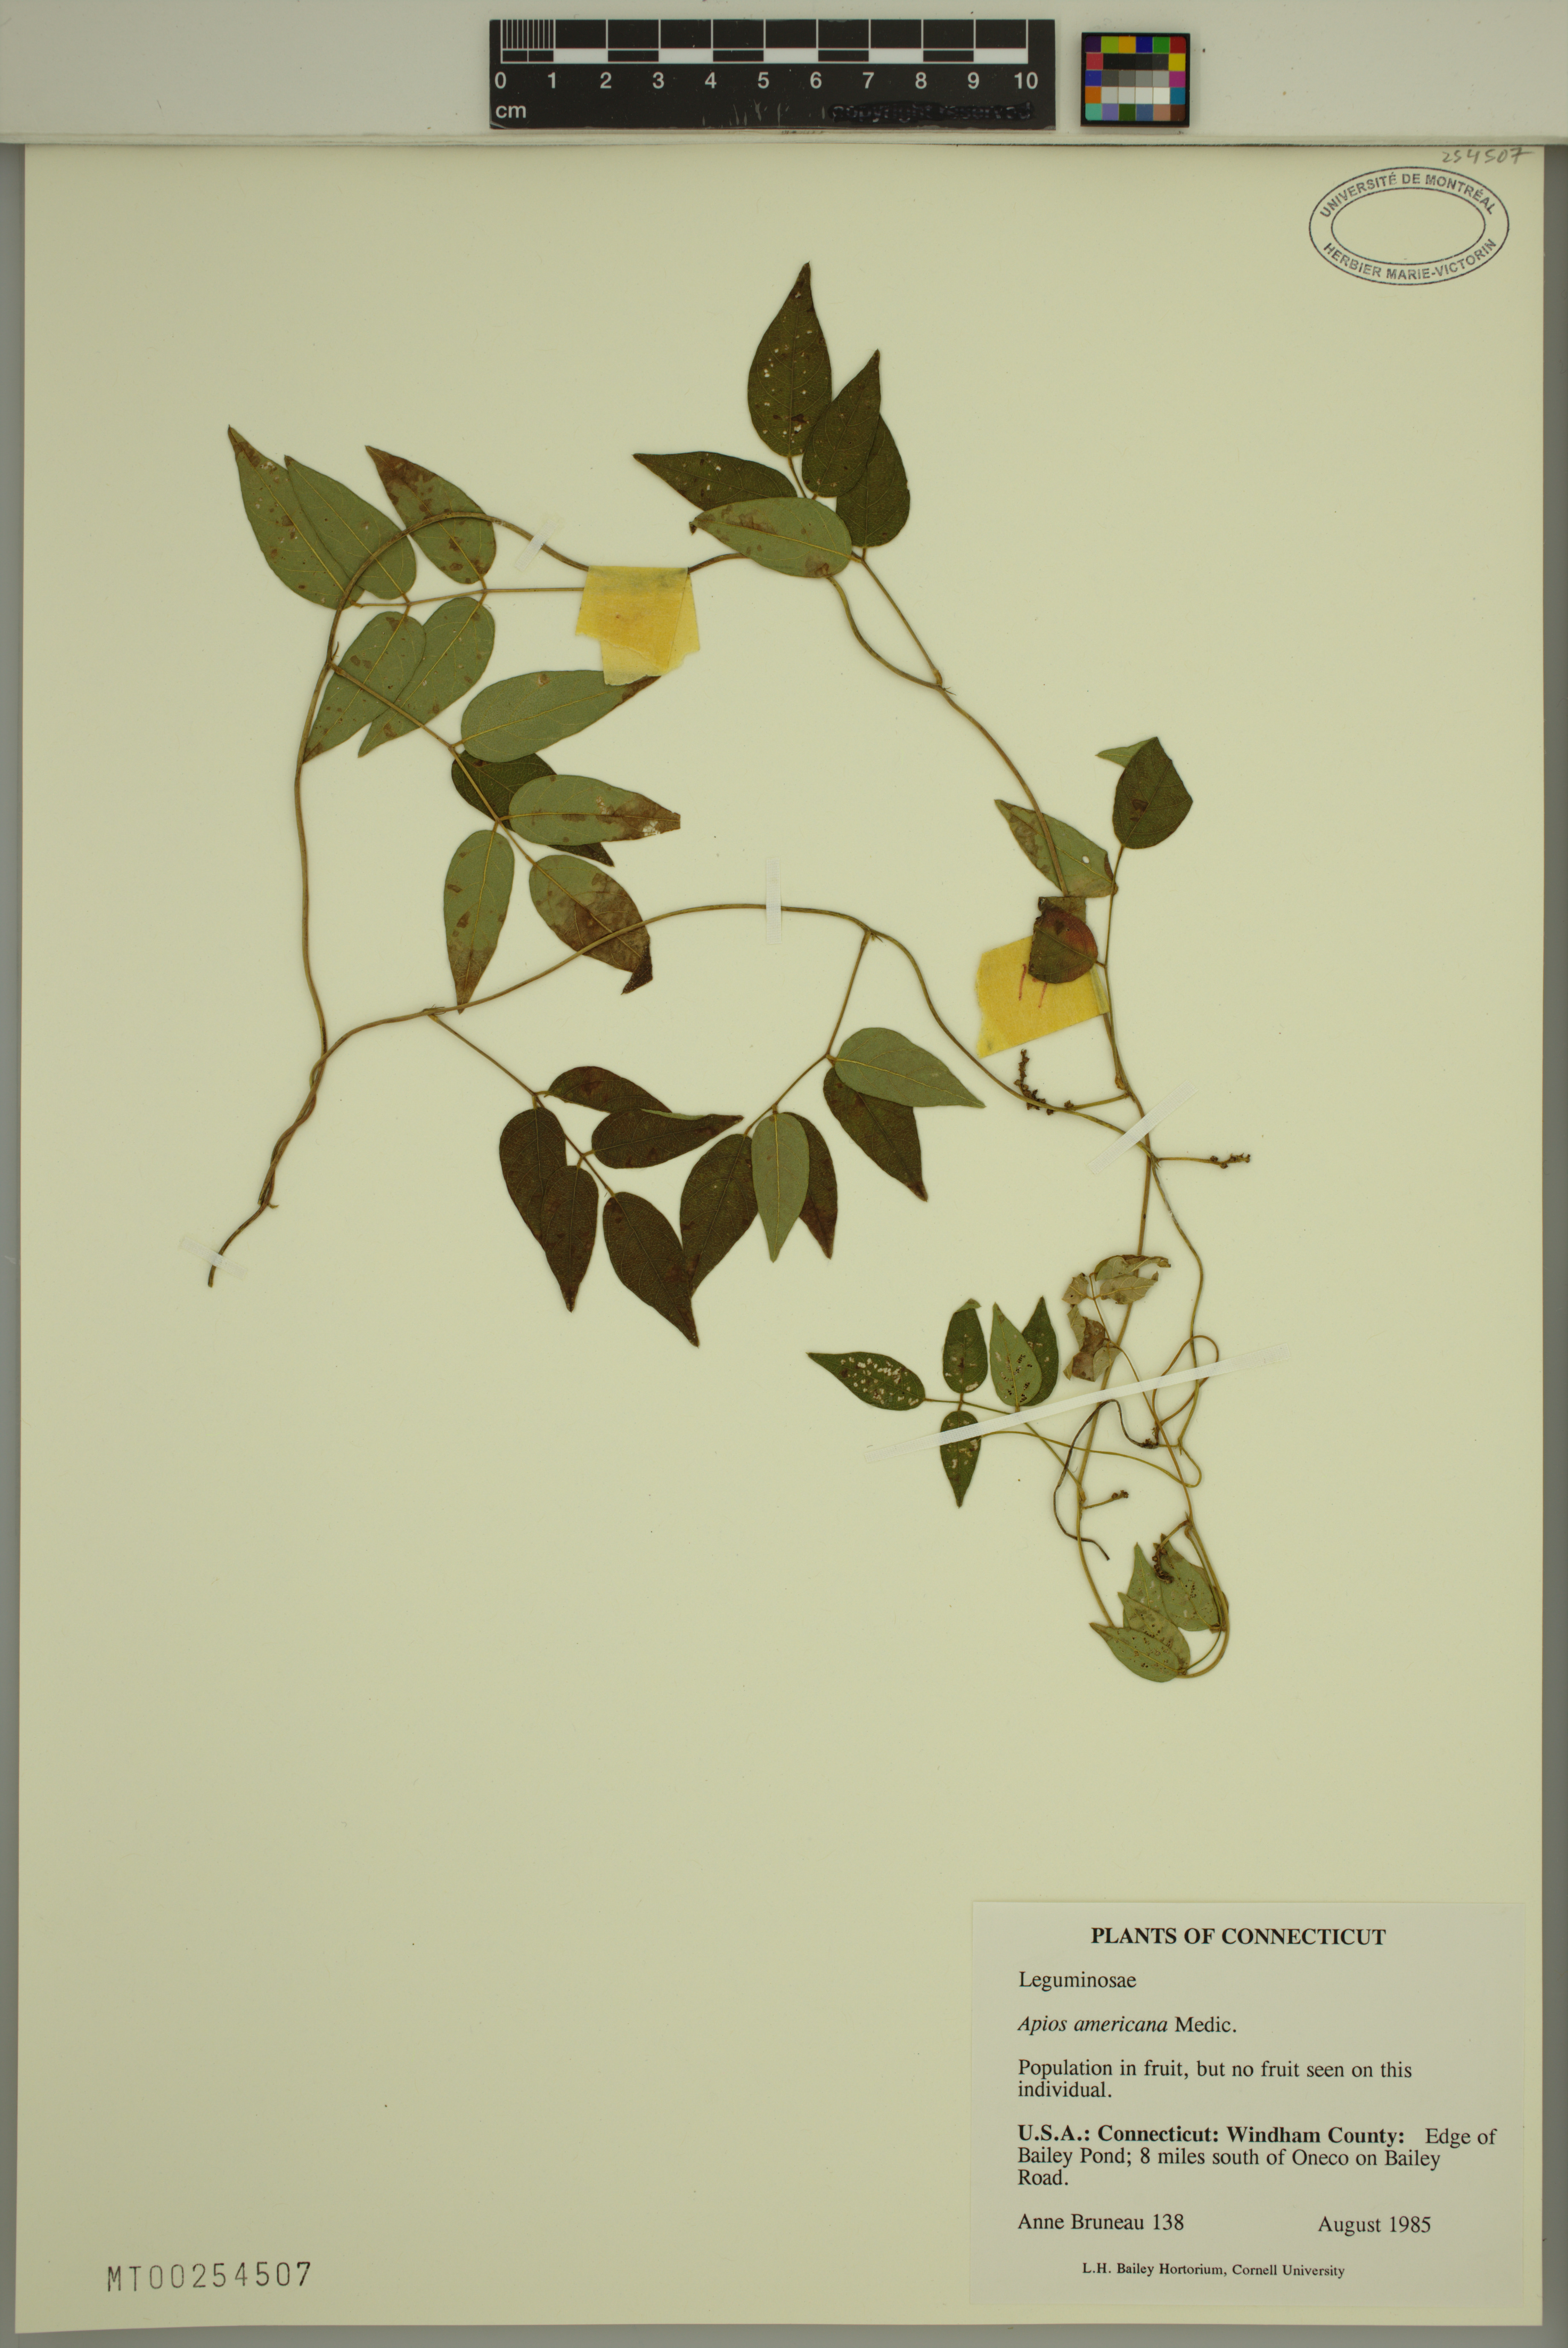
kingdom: Plantae
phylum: Tracheophyta
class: Magnoliopsida
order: Fabales
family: Fabaceae
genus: Apios
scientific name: Apios americana
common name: American potato-bean
